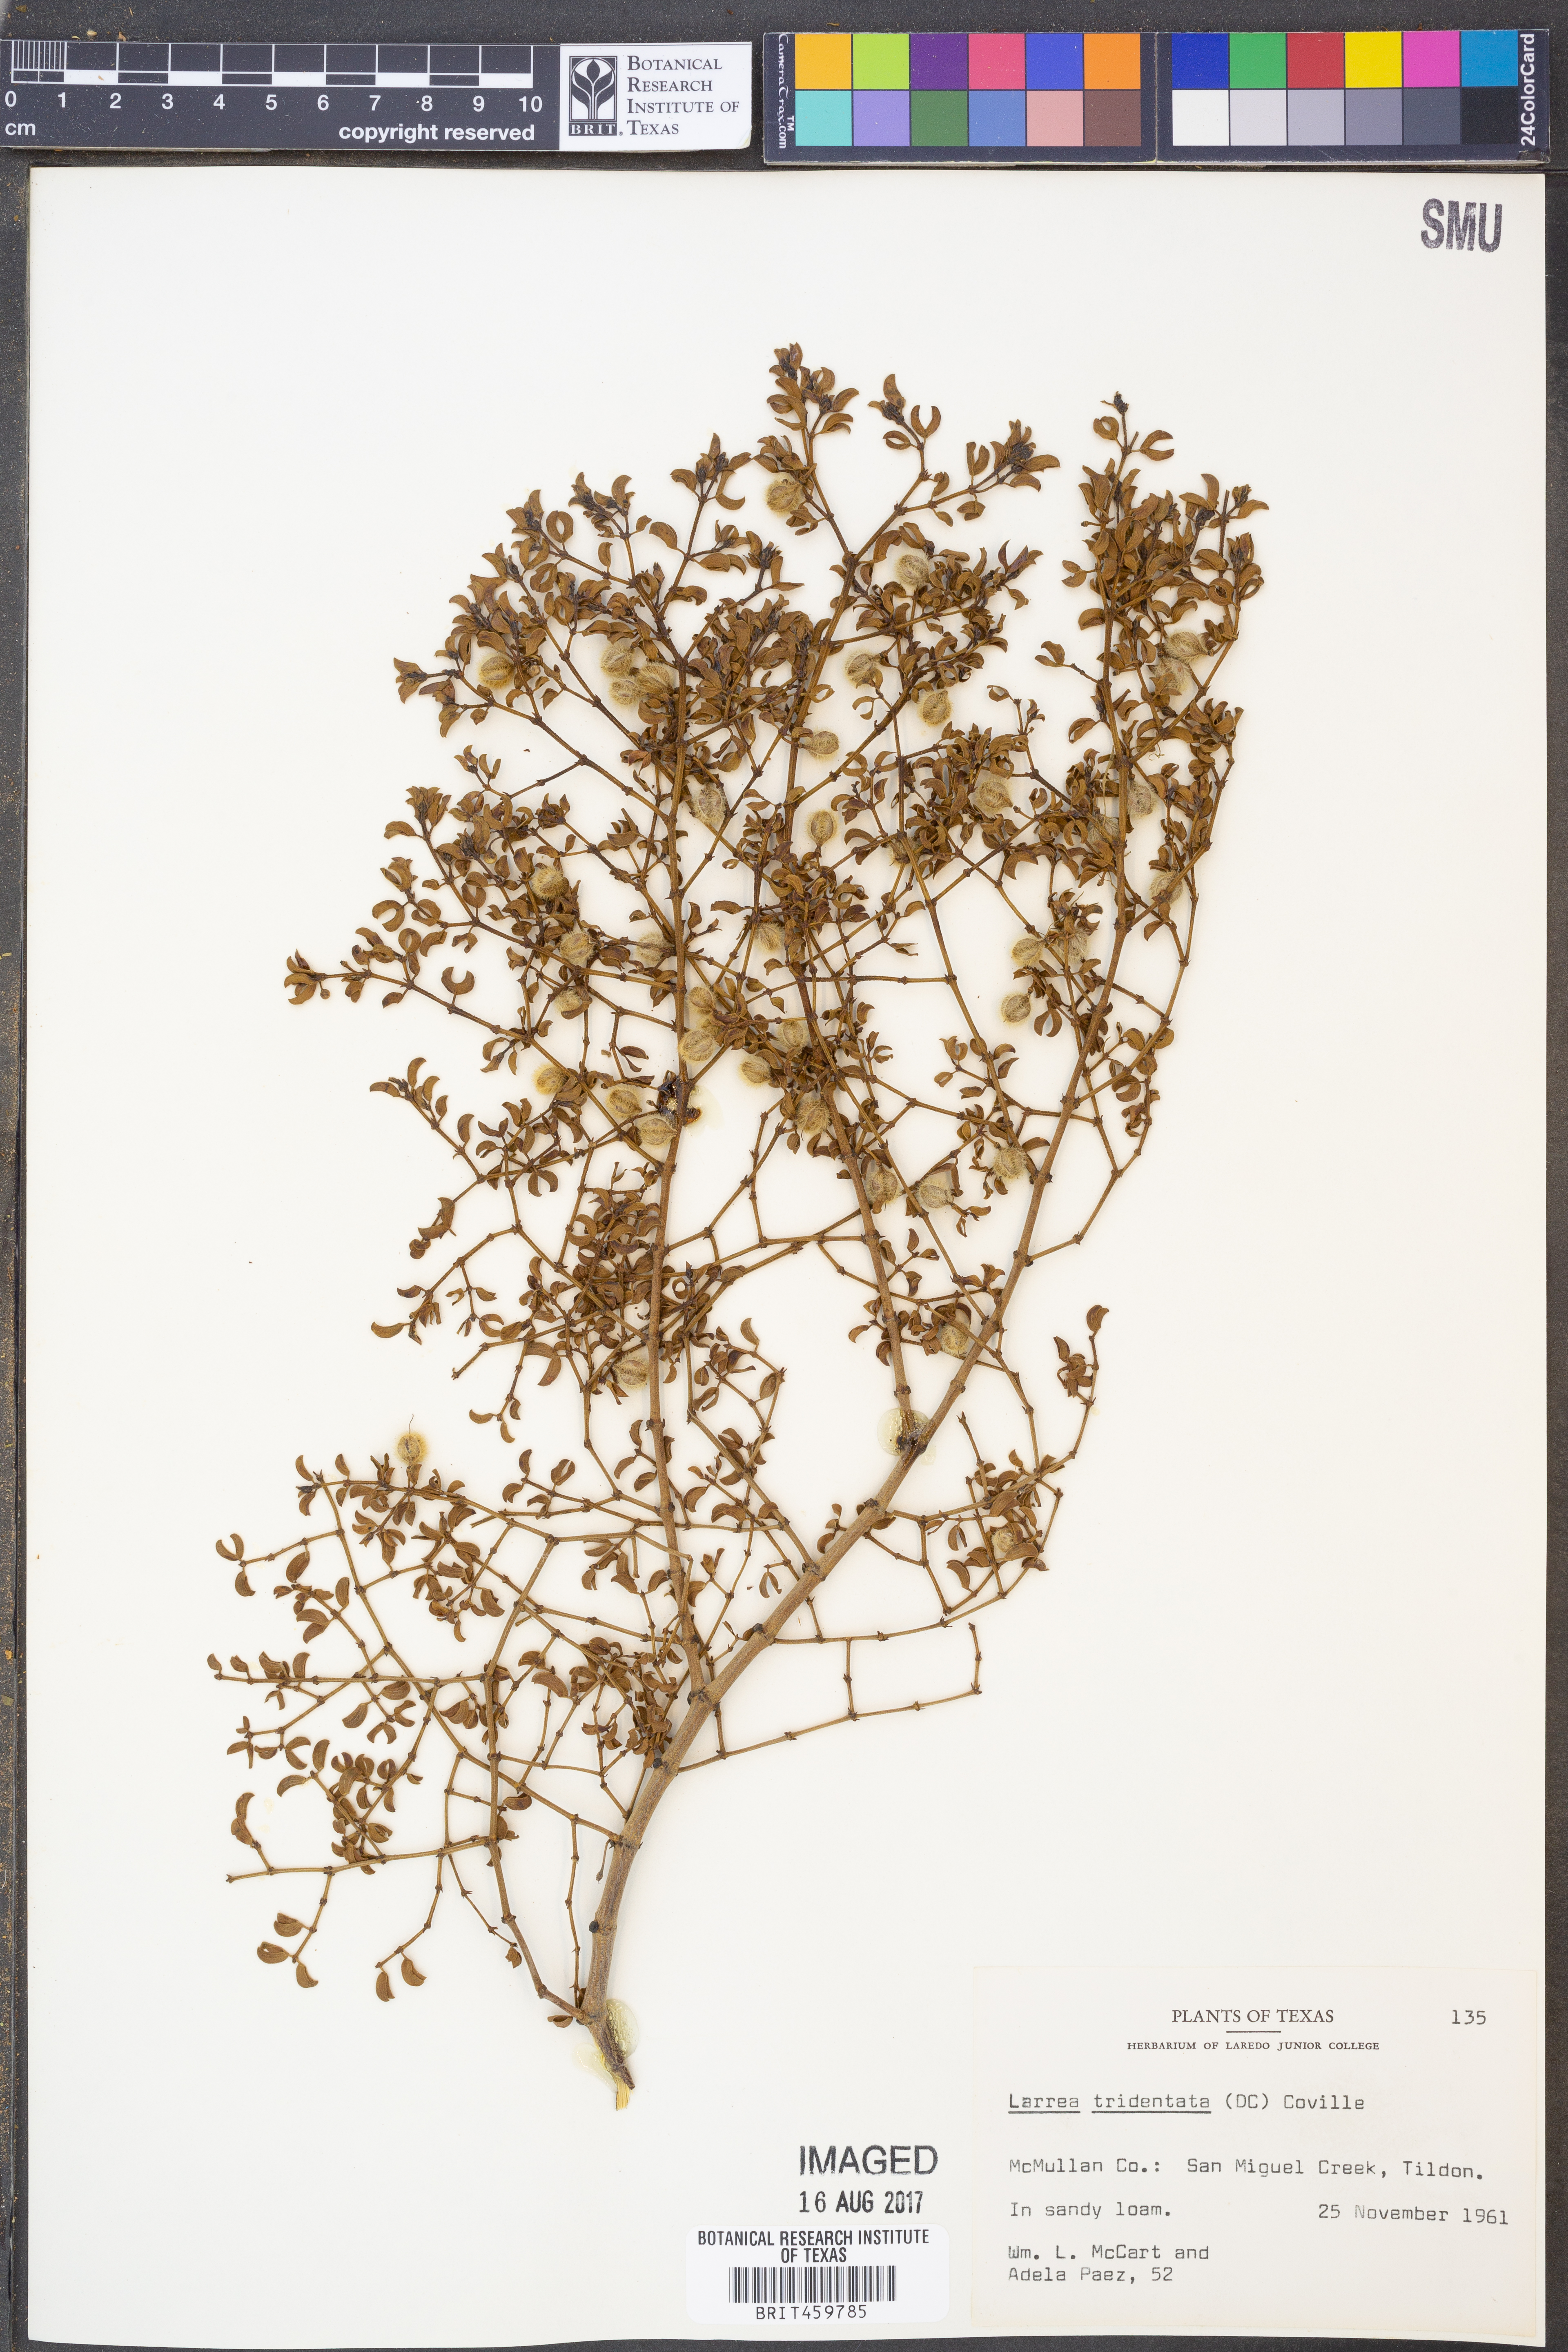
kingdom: Plantae
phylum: Tracheophyta
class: Magnoliopsida
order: Zygophyllales
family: Zygophyllaceae
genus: Larrea
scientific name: Larrea tridentata
